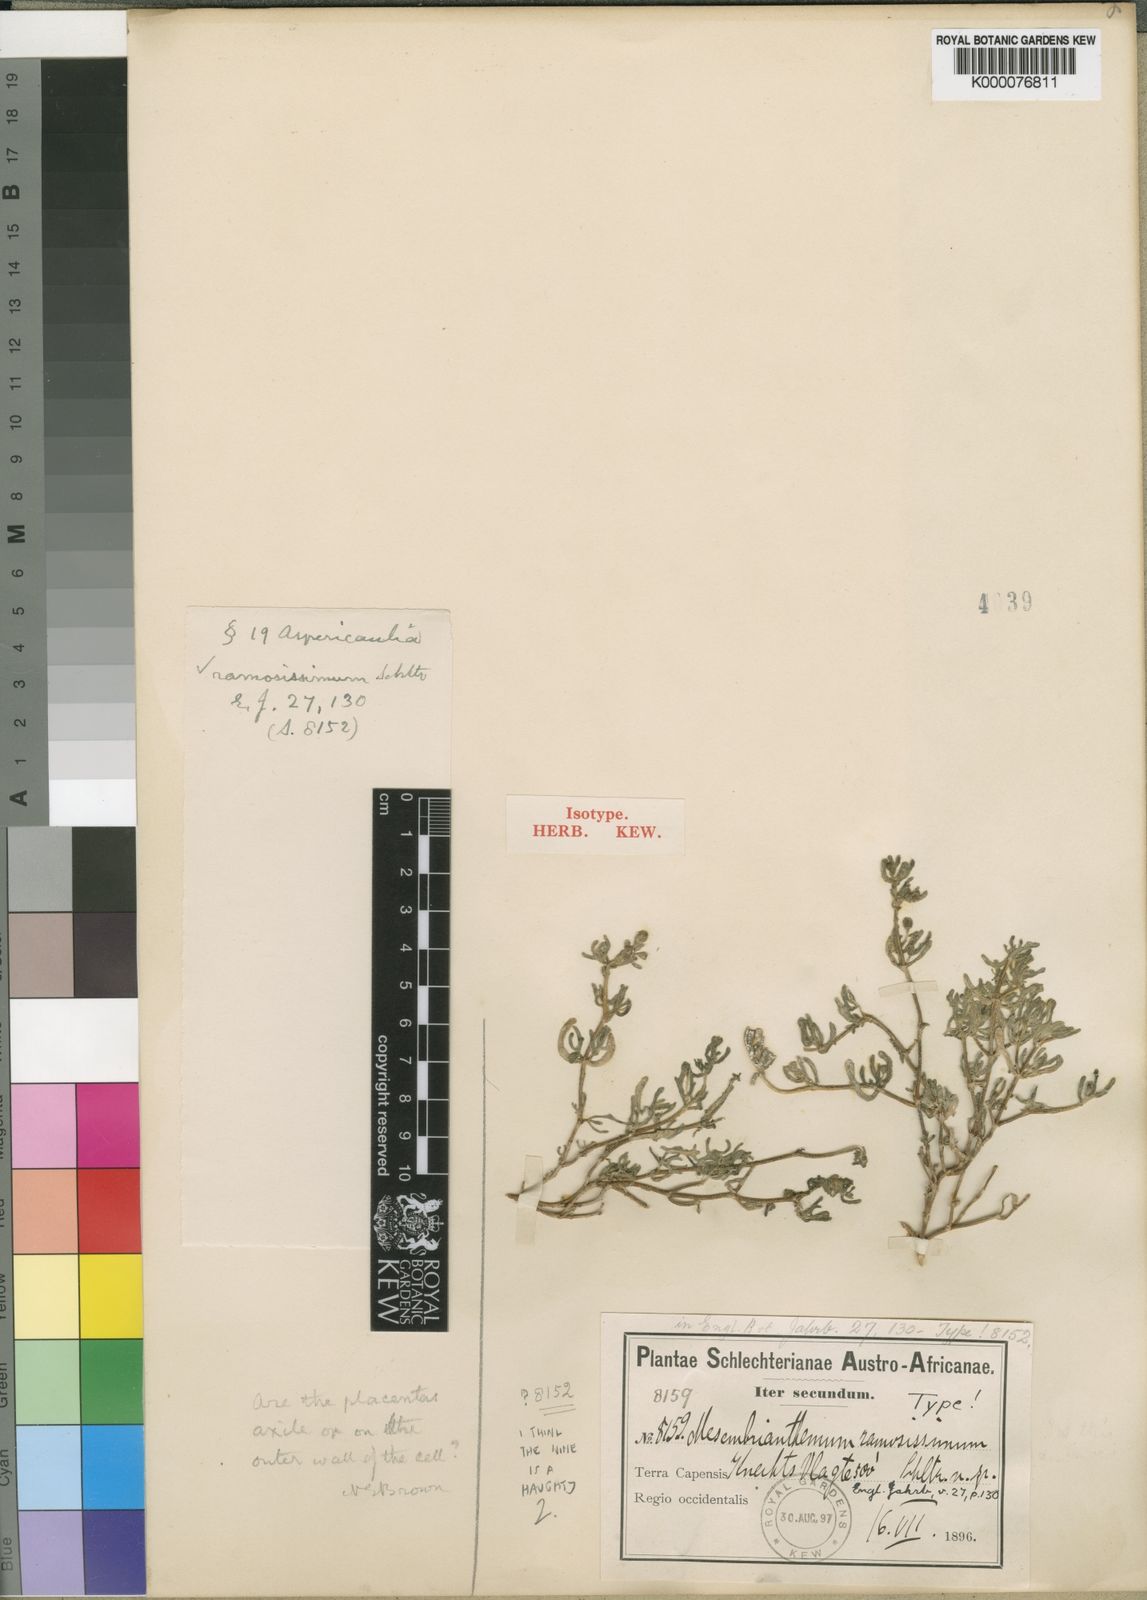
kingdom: Plantae
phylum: Tracheophyta
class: Magnoliopsida
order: Caryophyllales
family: Aizoaceae
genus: Drosanthemum
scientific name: Drosanthemum ramosissimum
